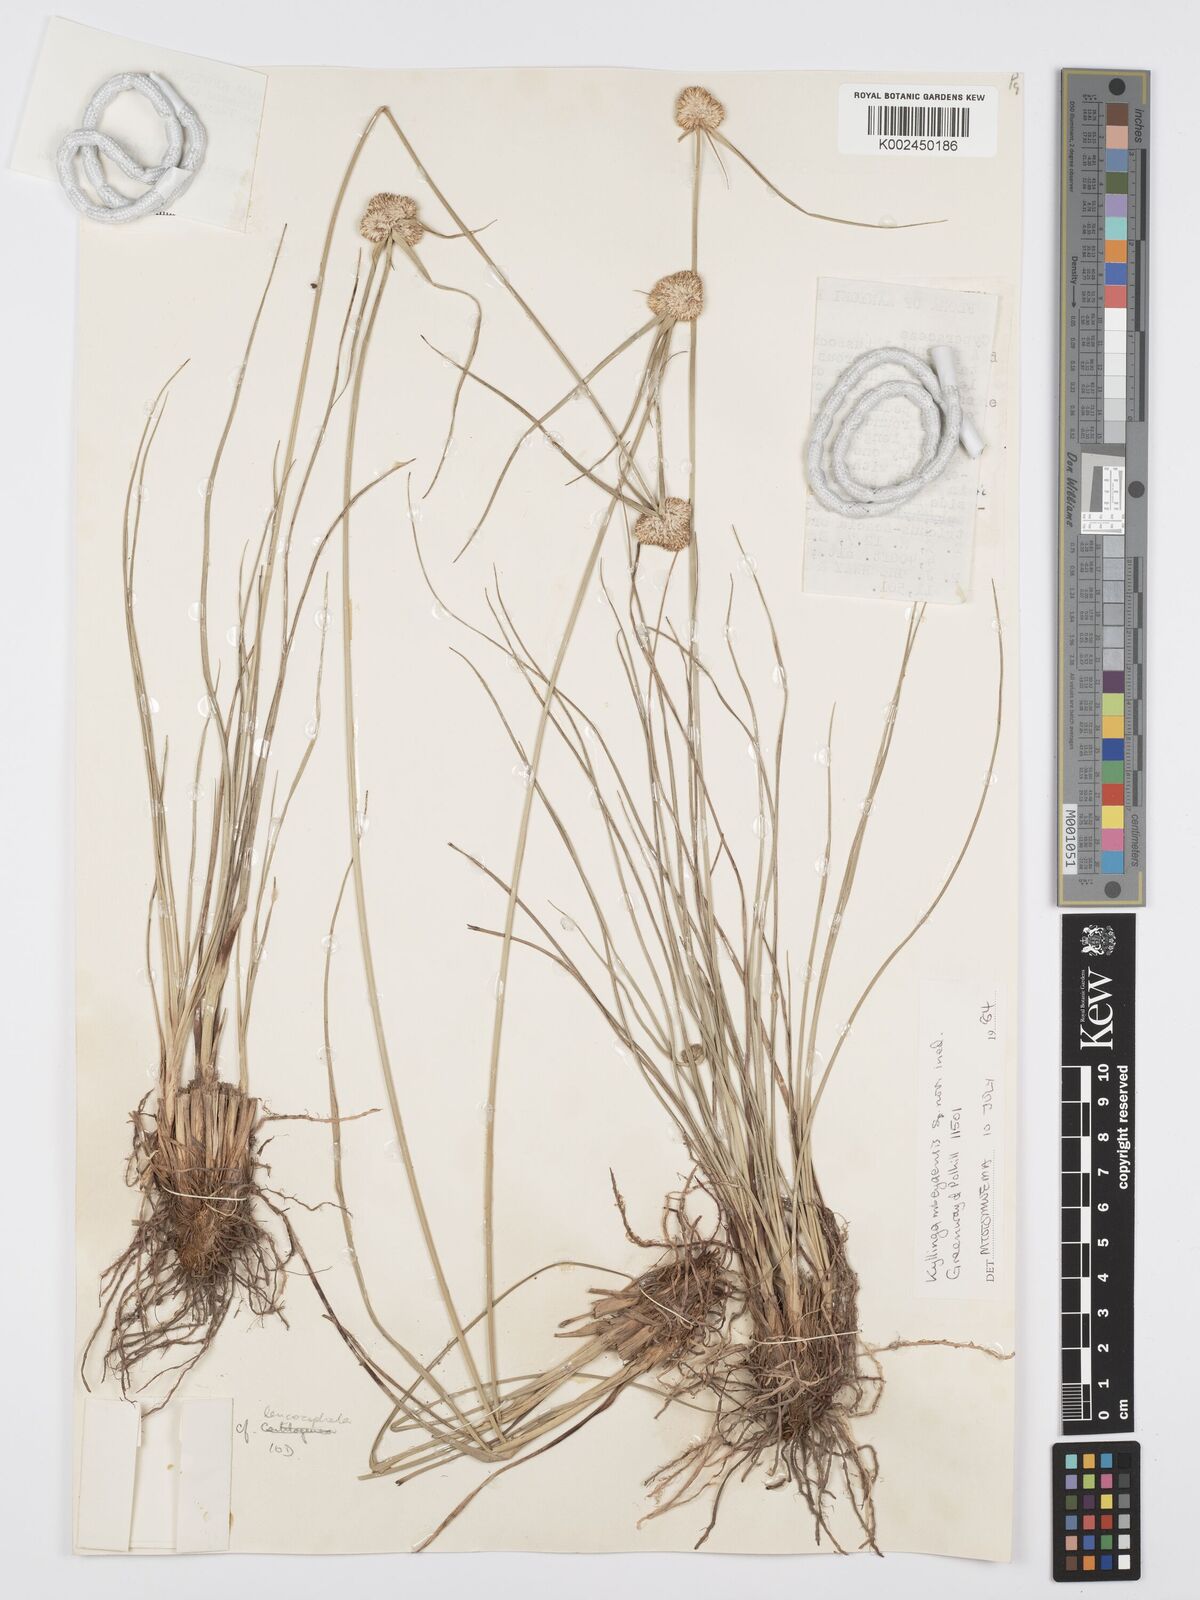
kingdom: Plantae
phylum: Tracheophyta
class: Liliopsida
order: Poales
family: Cyperaceae
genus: Cyperus
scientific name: Cyperus
